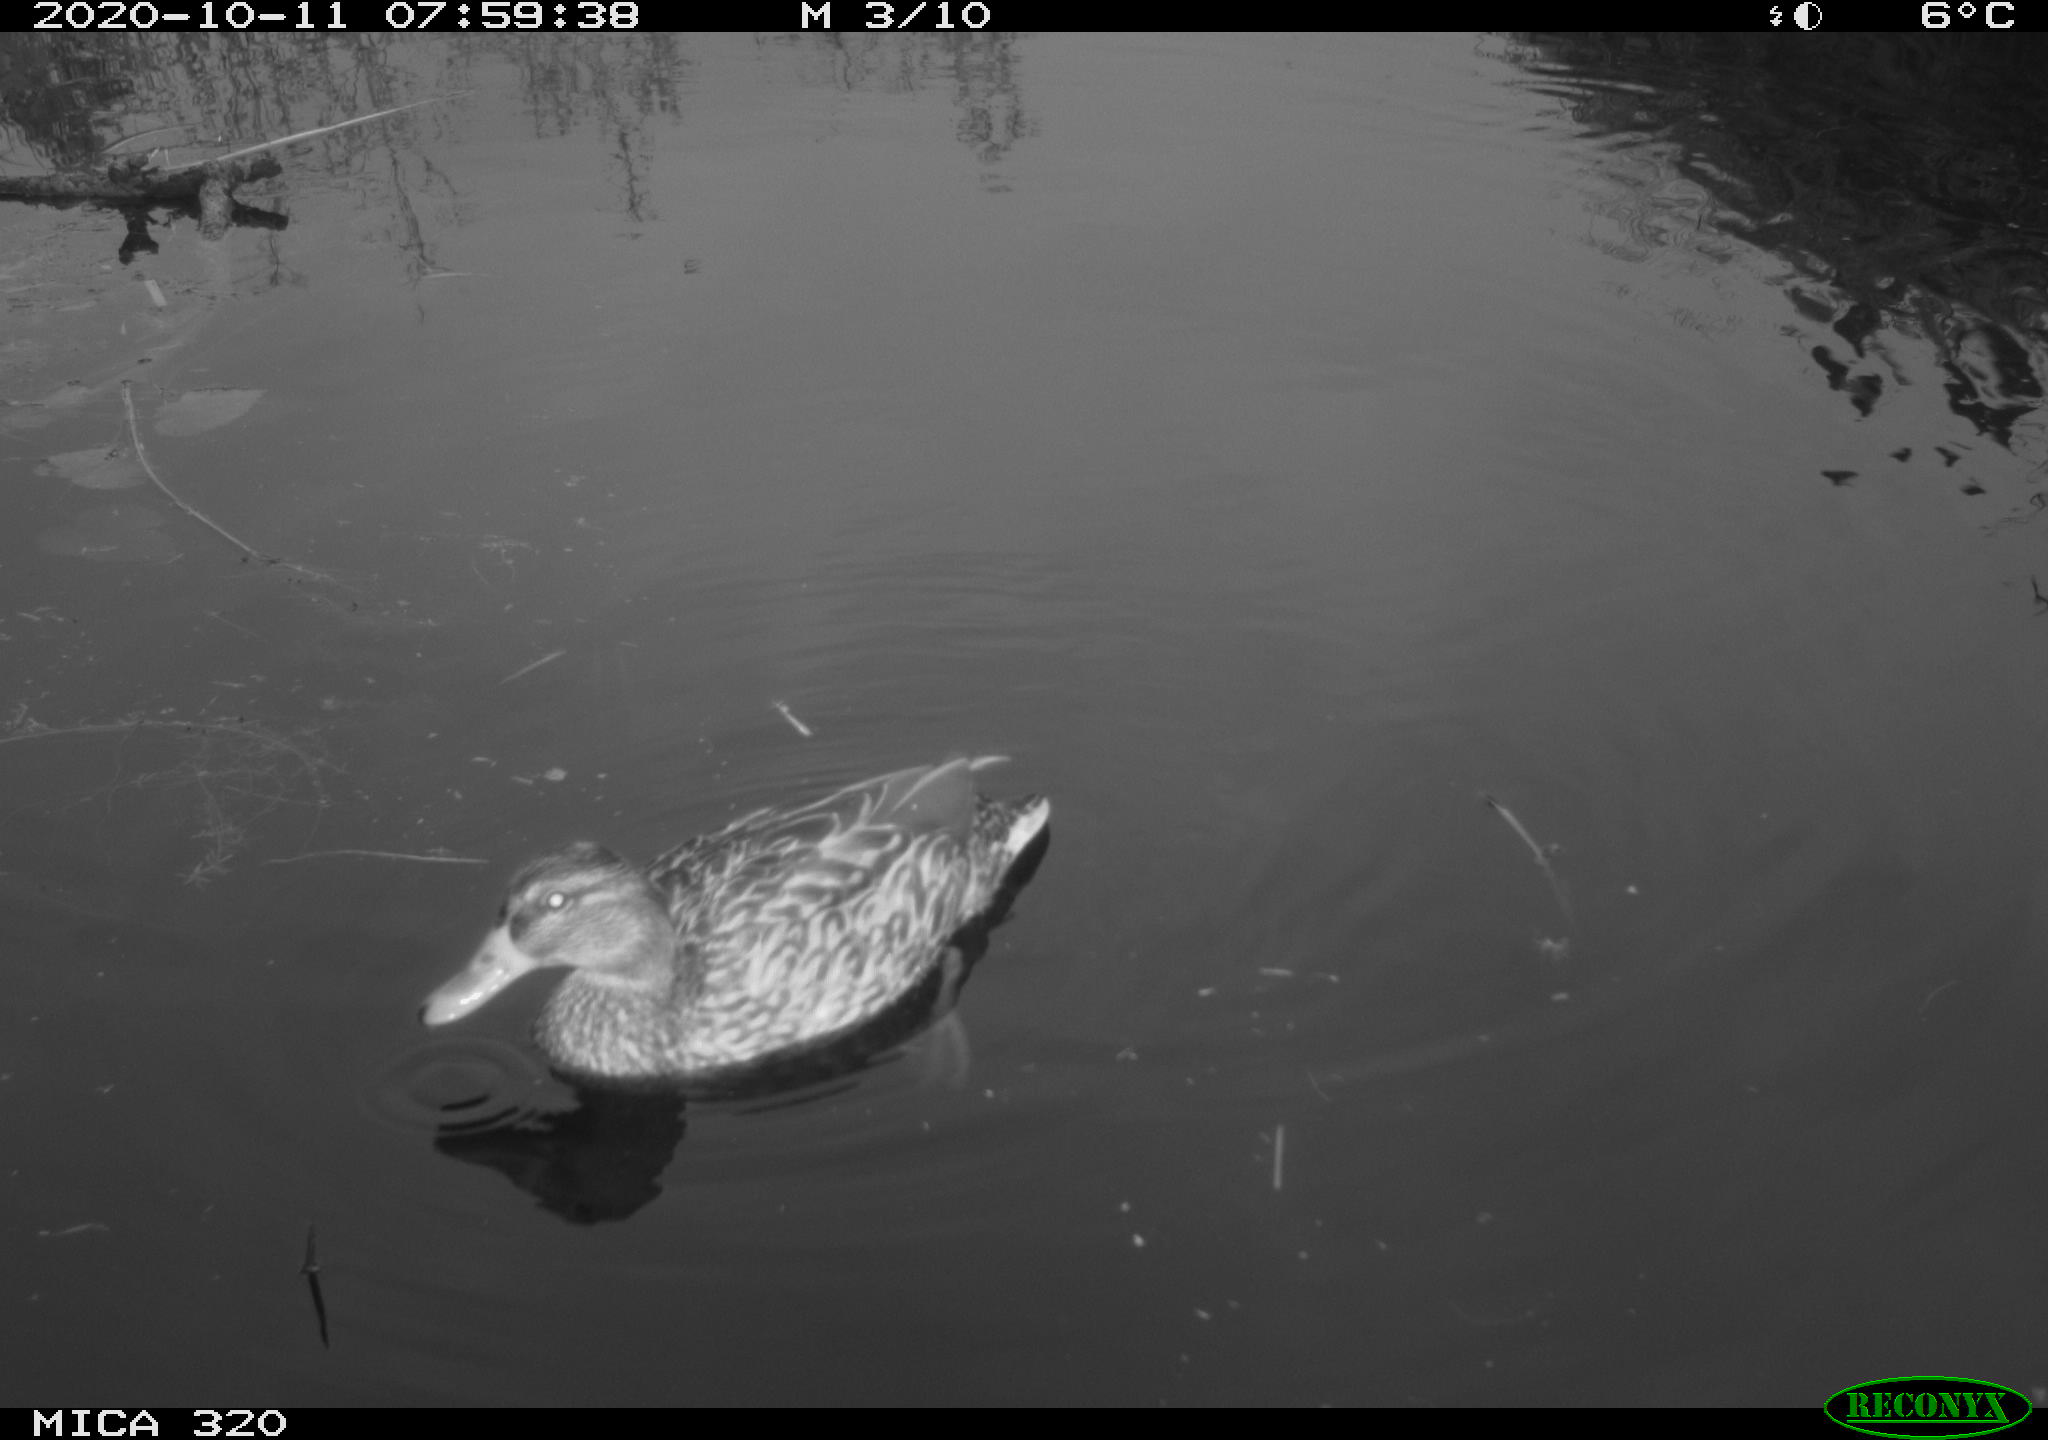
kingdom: Animalia
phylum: Chordata
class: Aves
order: Anseriformes
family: Anatidae
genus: Anas
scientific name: Anas platyrhynchos
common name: Mallard
